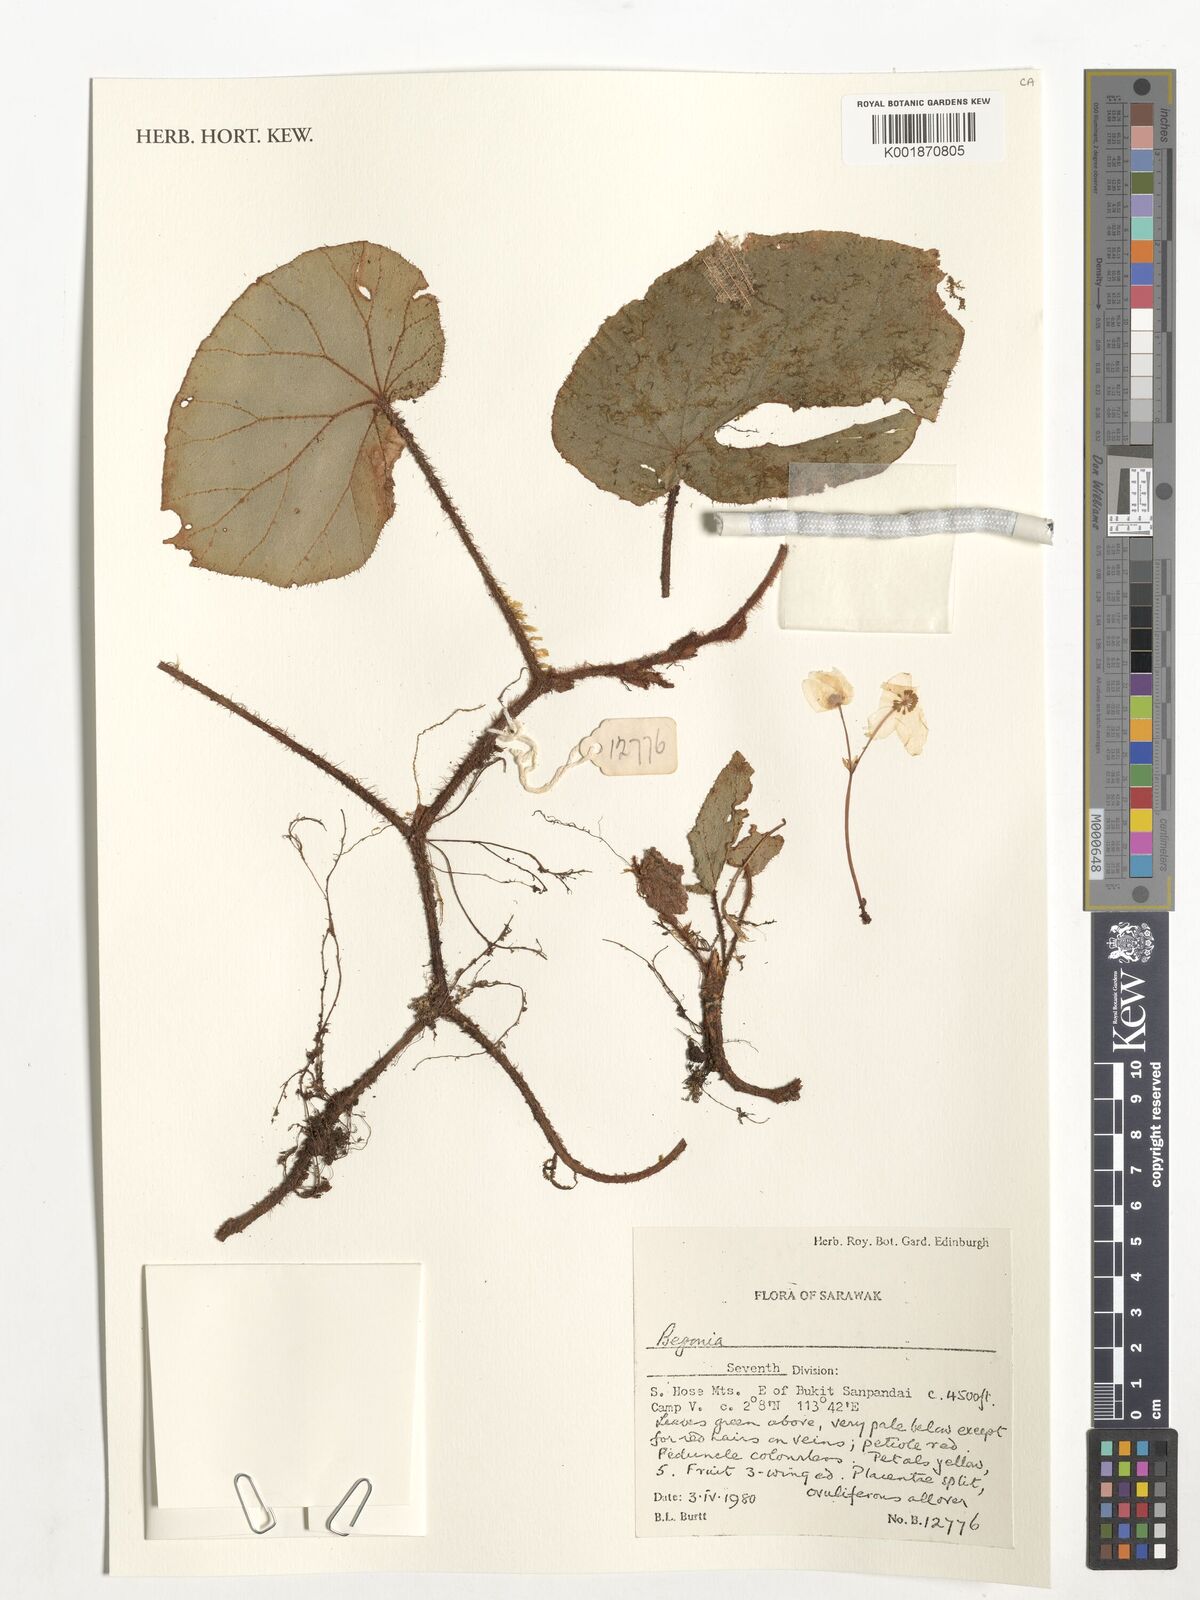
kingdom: Plantae
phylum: Tracheophyta
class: Magnoliopsida
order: Cucurbitales
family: Begoniaceae
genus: Begonia
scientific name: Begonia
